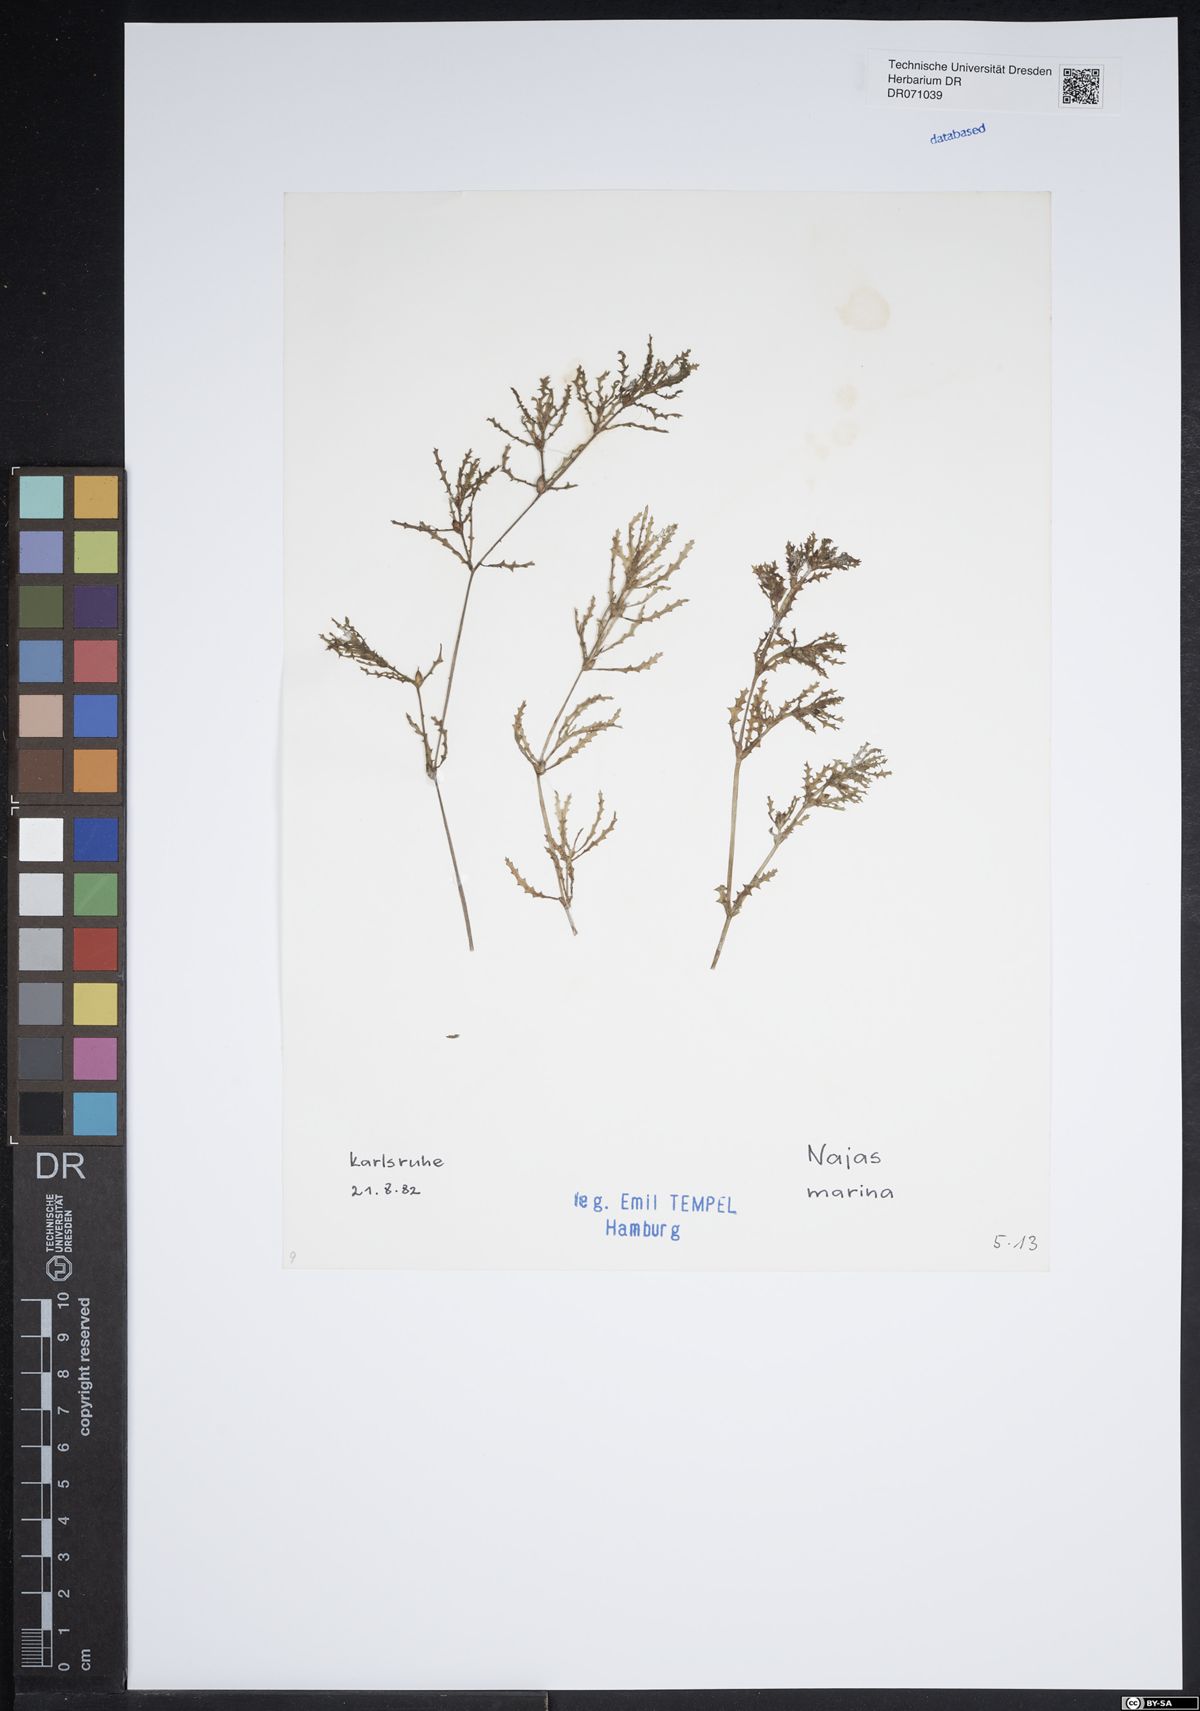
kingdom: Plantae
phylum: Tracheophyta
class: Liliopsida
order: Alismatales
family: Hydrocharitaceae
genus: Najas
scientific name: Najas marina
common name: Holly-leaved naiad
